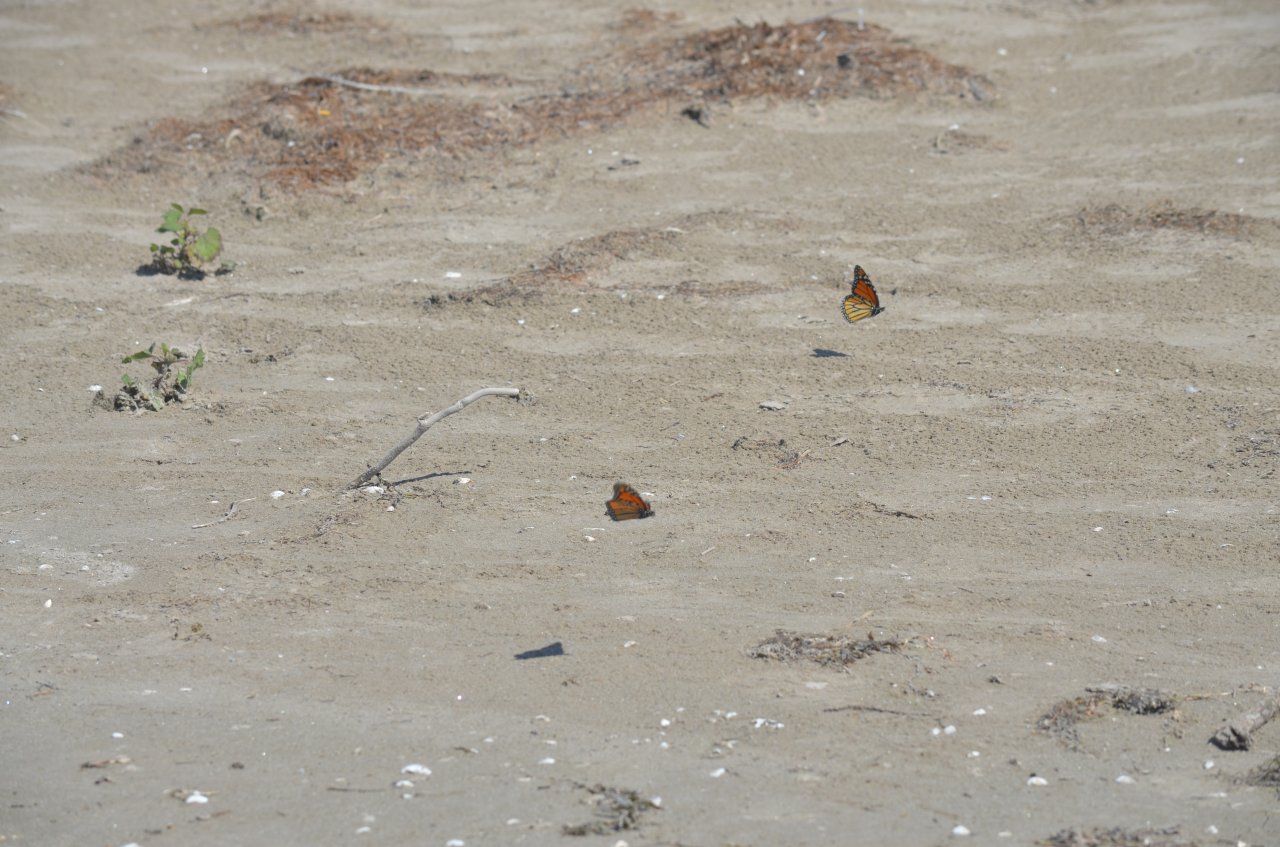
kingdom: Animalia
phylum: Arthropoda
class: Insecta
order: Lepidoptera
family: Nymphalidae
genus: Danaus
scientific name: Danaus plexippus
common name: Monarch
